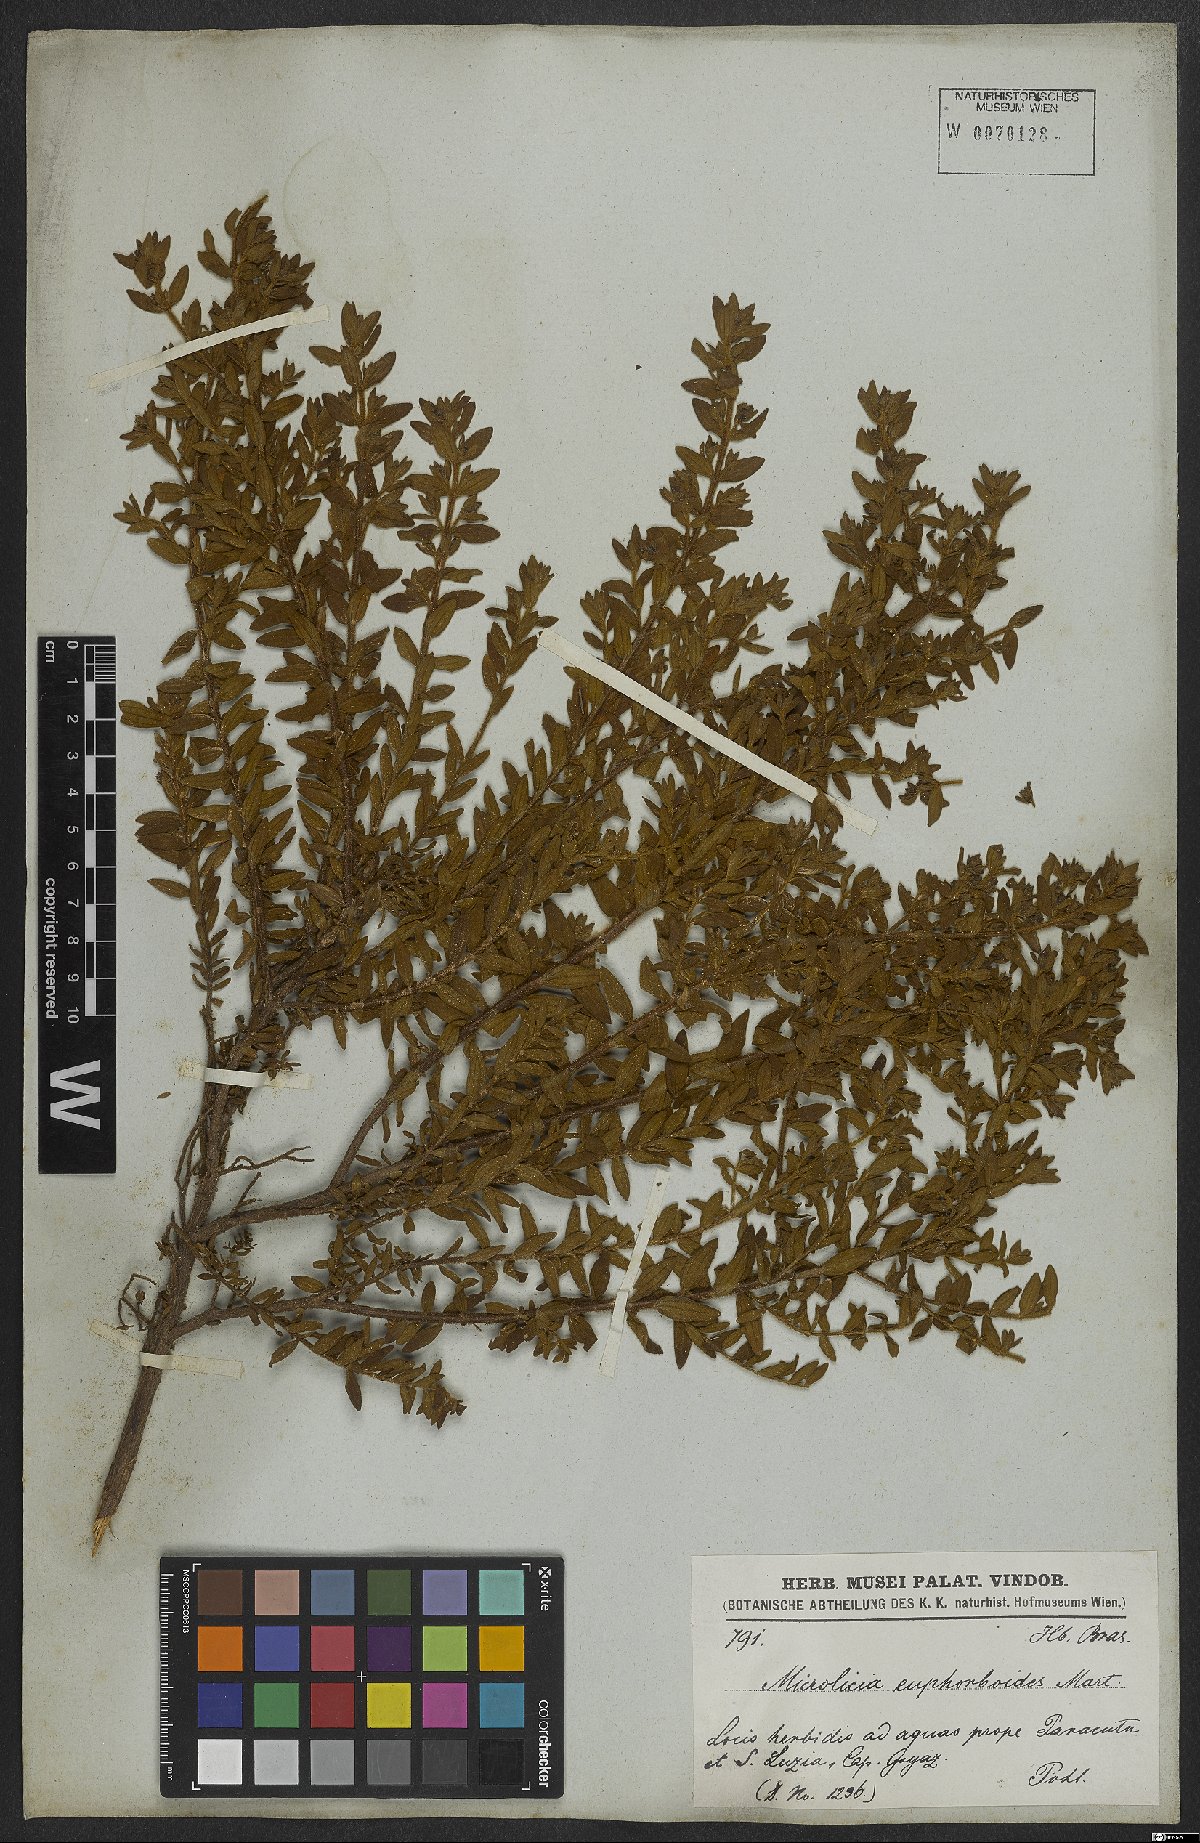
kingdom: Plantae
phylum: Tracheophyta
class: Magnoliopsida
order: Myrtales
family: Melastomataceae
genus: Microlicia
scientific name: Microlicia euphorbioides
